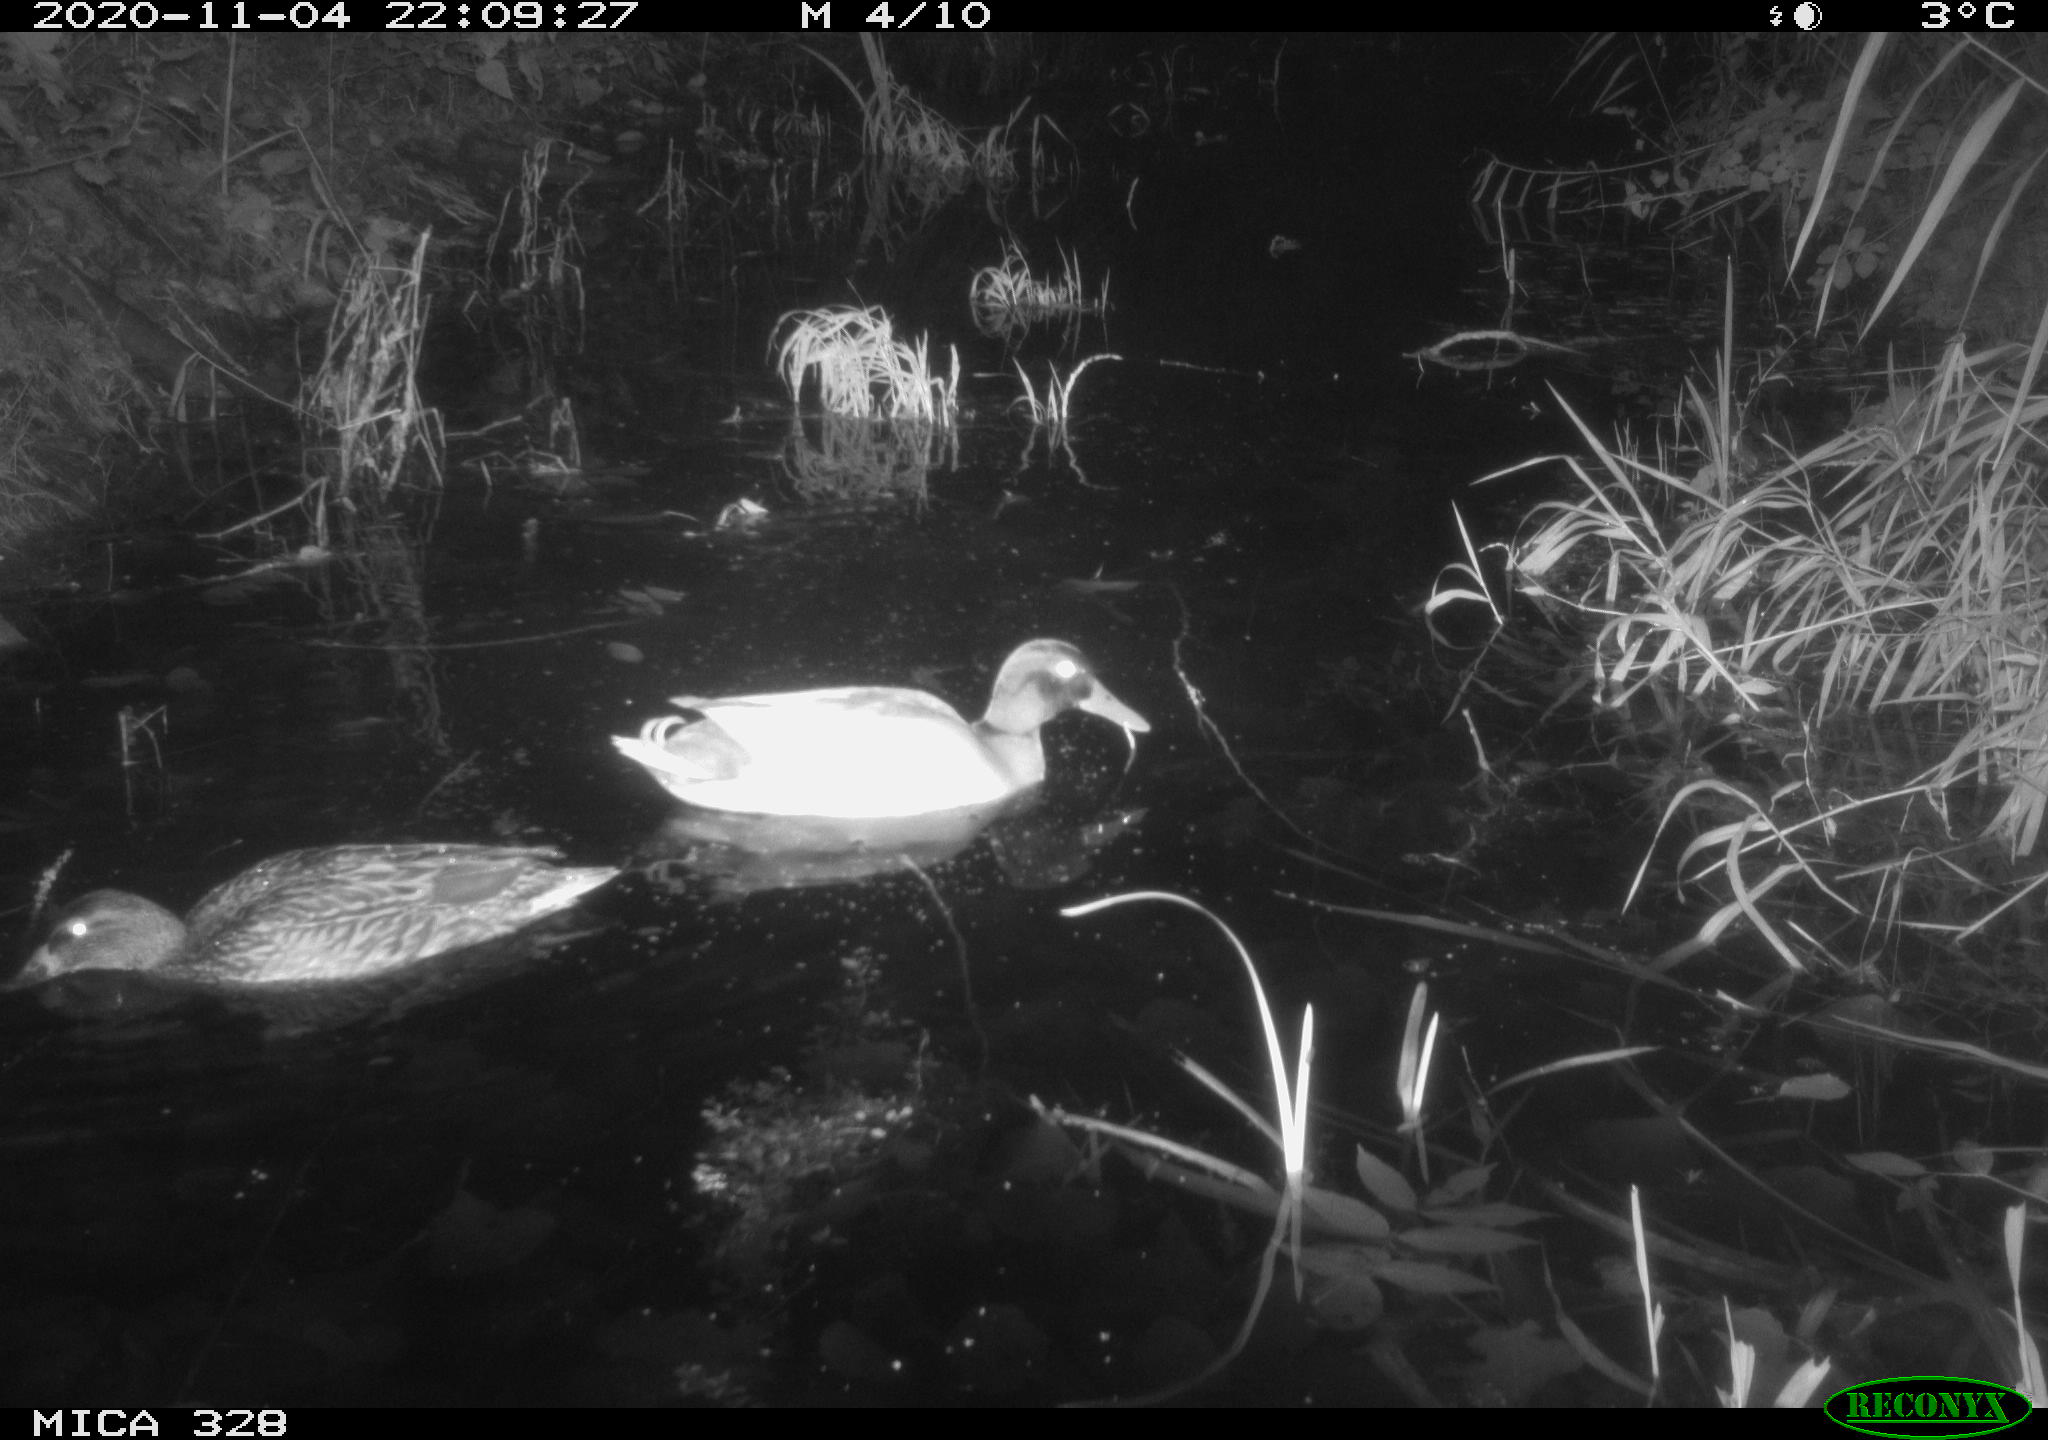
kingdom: Animalia
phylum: Chordata
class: Aves
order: Anseriformes
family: Anatidae
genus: Anas
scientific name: Anas platyrhynchos
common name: Mallard
